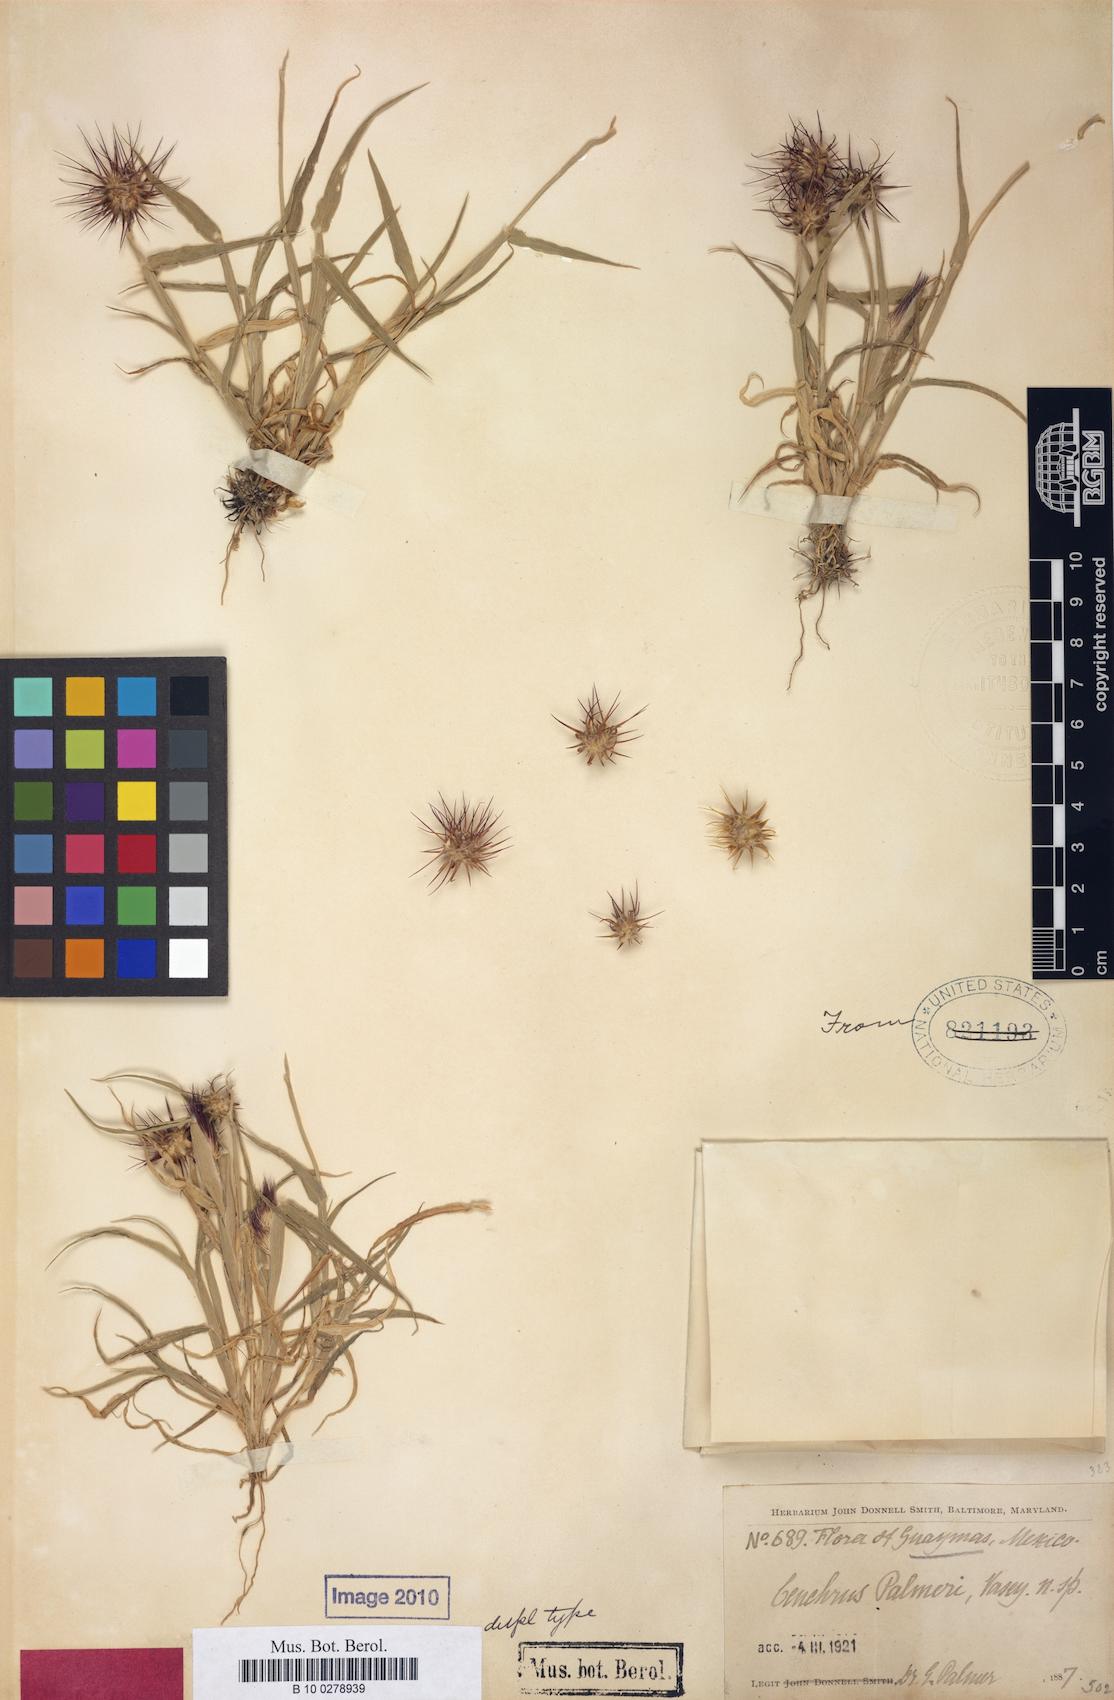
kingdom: Plantae
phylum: Tracheophyta
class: Liliopsida
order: Poales
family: Poaceae
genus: Cenchrus
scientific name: Cenchrus palmeri
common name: Giant sandbur
